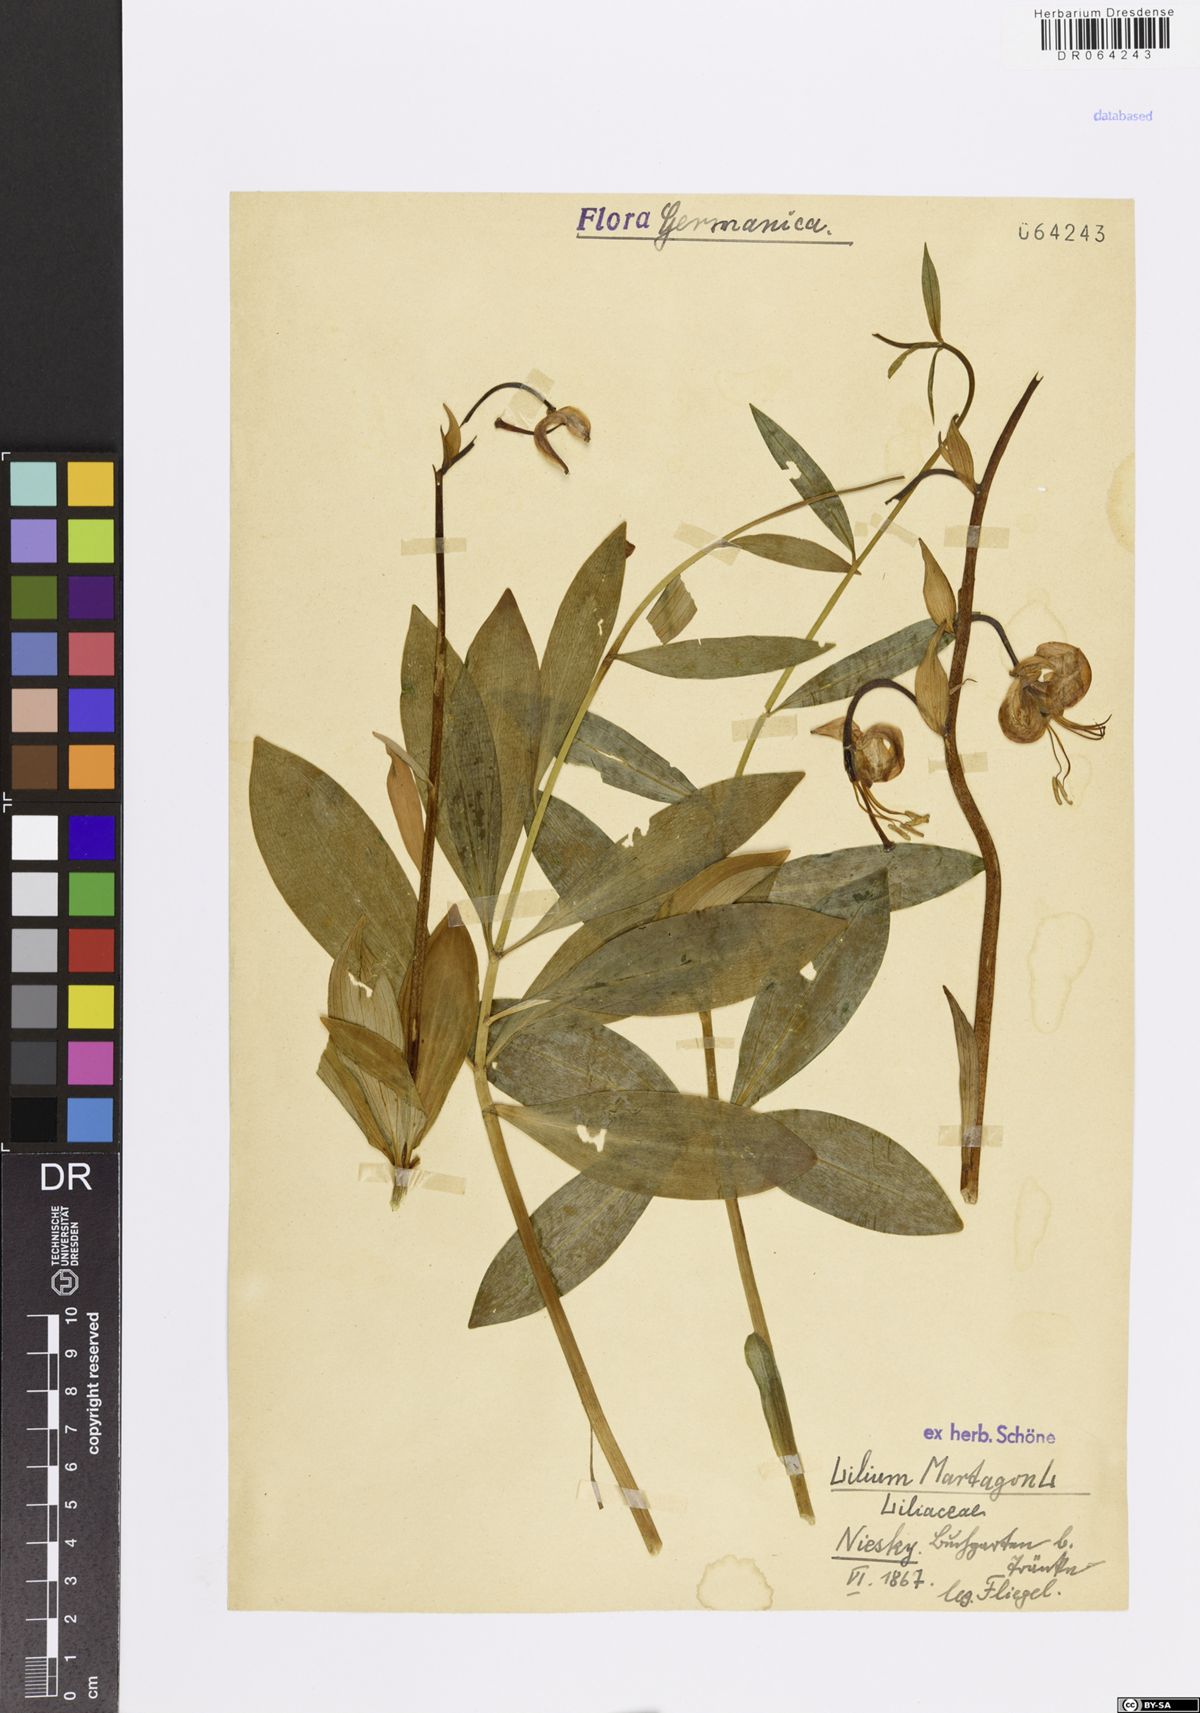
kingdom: Plantae
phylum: Tracheophyta
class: Liliopsida
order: Liliales
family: Liliaceae
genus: Lilium
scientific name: Lilium martagon
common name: Martagon lily
